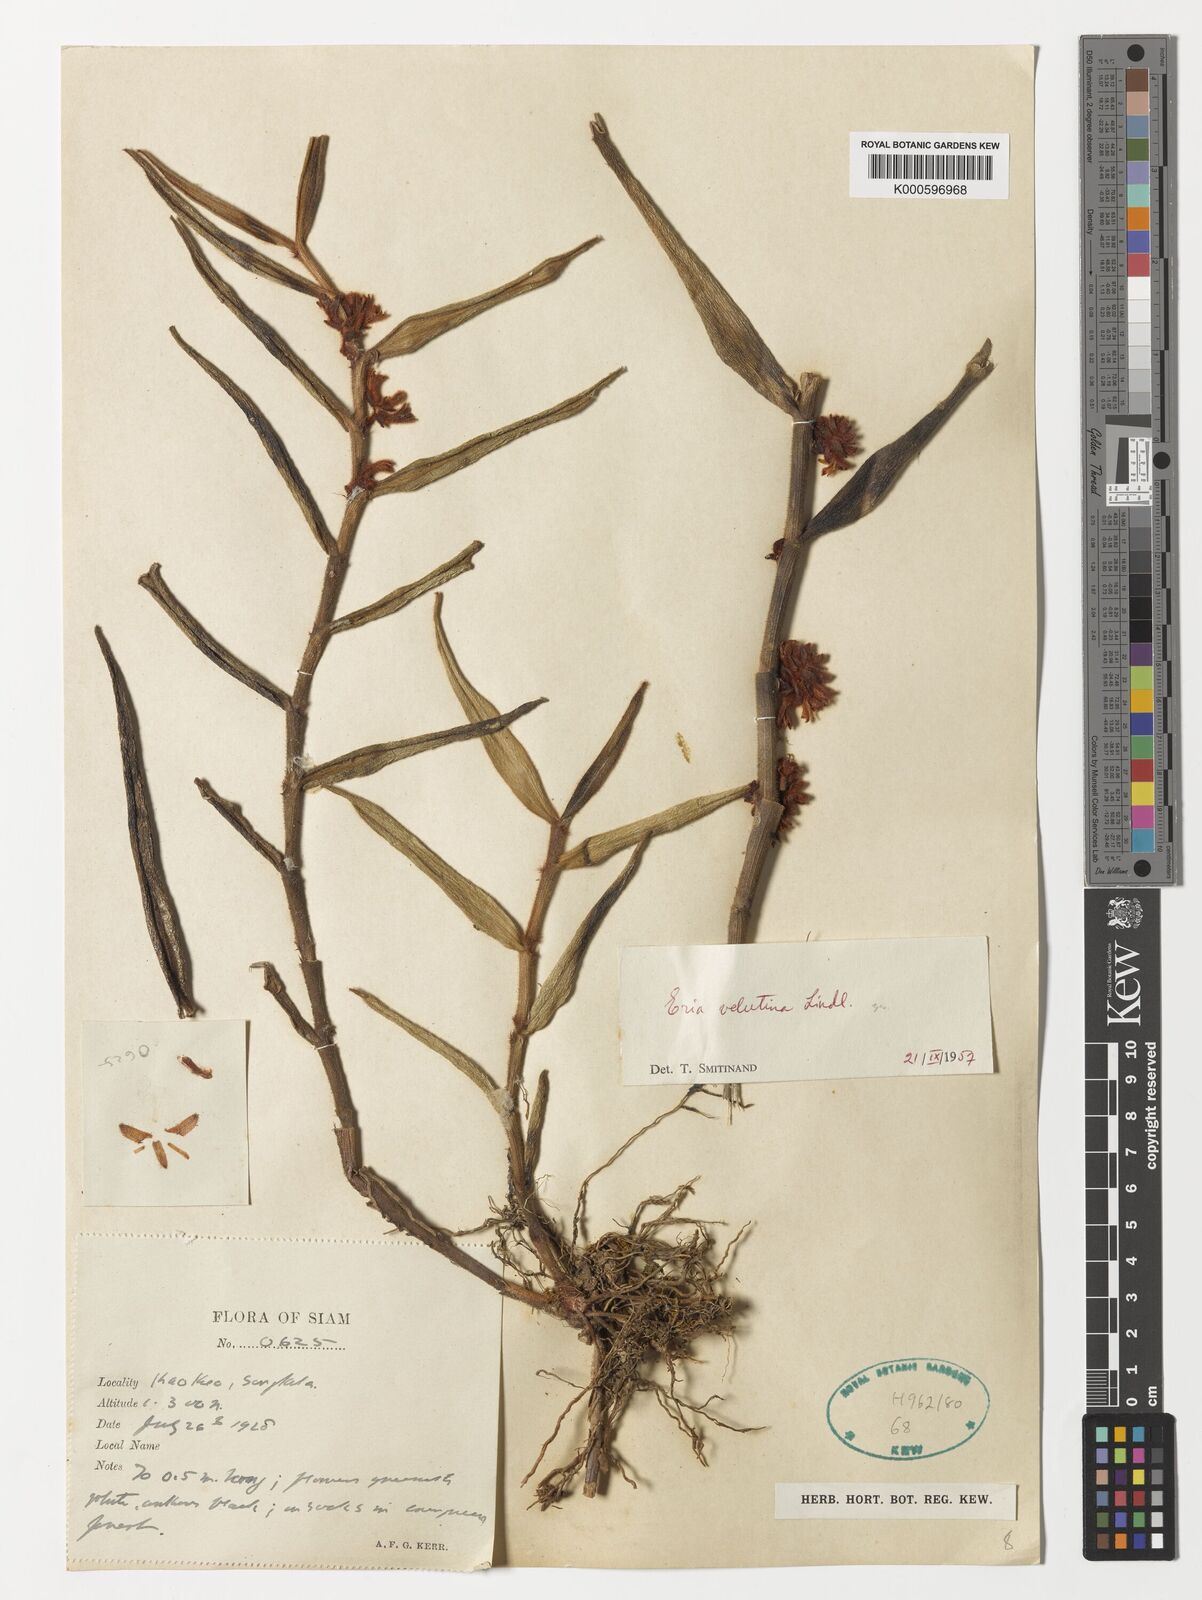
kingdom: Plantae
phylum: Tracheophyta
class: Liliopsida
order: Asparagales
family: Orchidaceae
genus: Trichotosia
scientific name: Trichotosia velutina
